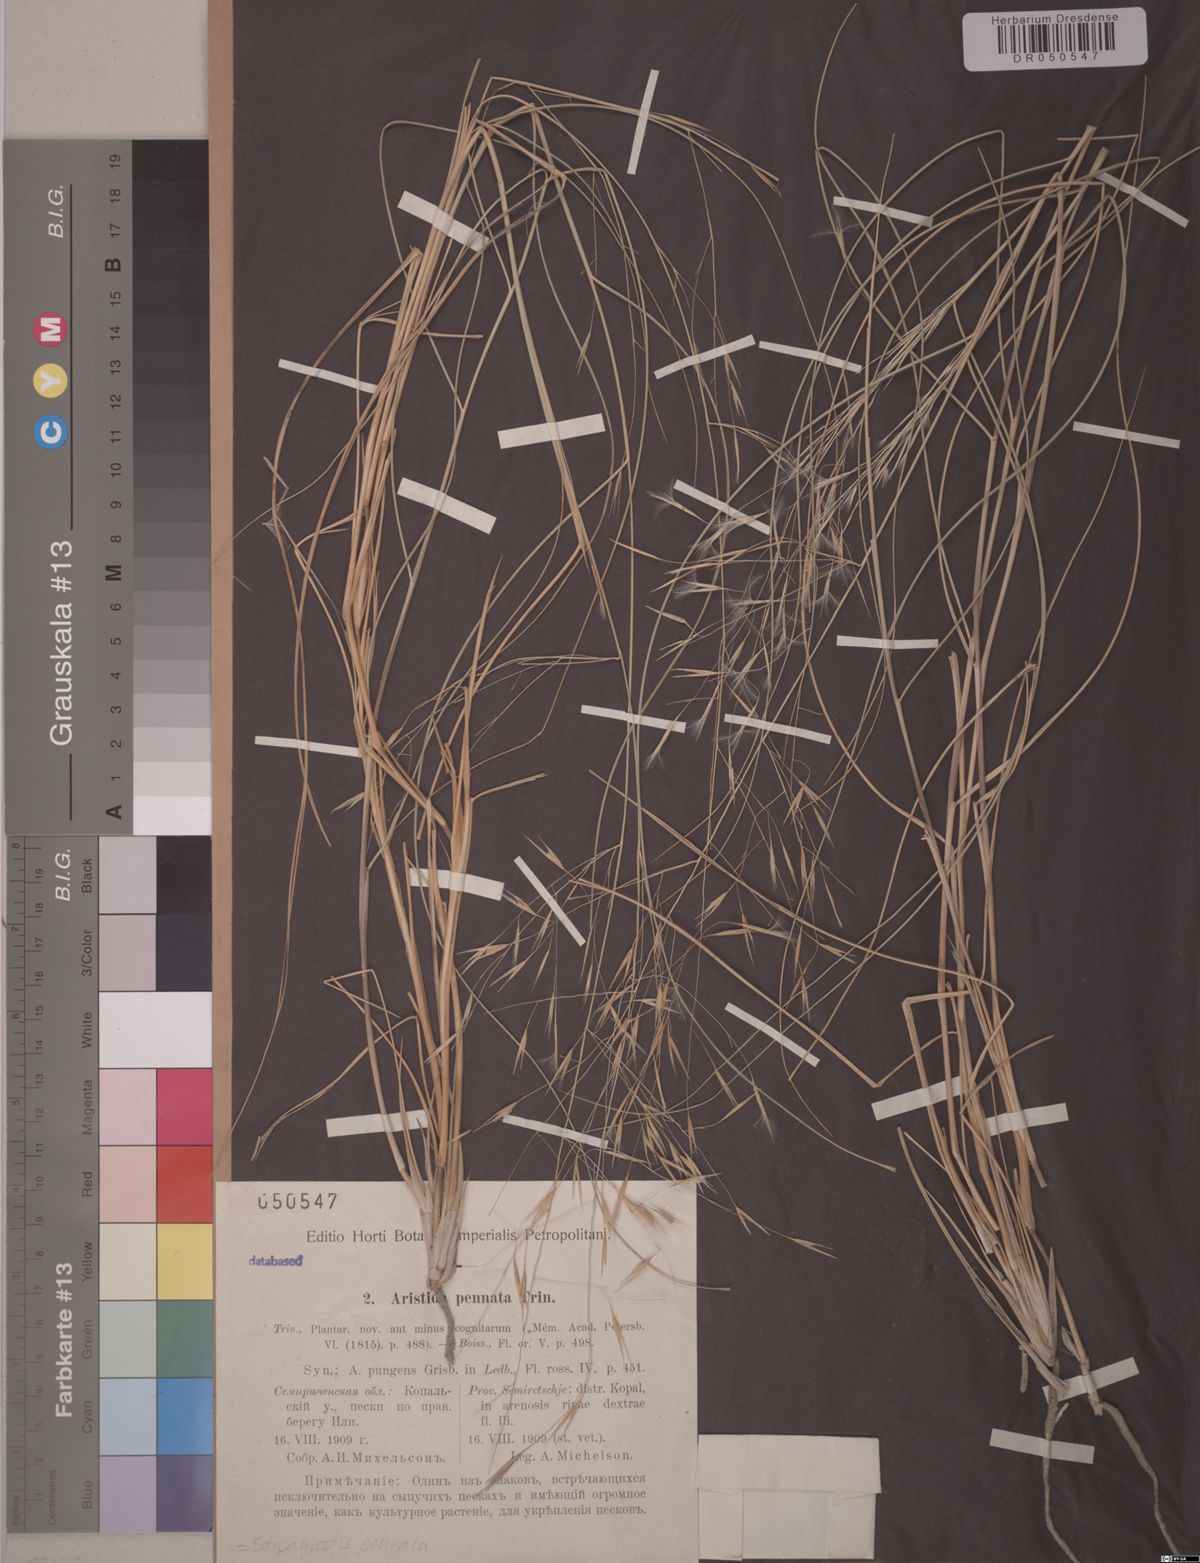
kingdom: Plantae
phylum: Tracheophyta
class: Liliopsida
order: Poales
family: Poaceae
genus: Stipagrostis
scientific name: Stipagrostis pennata
